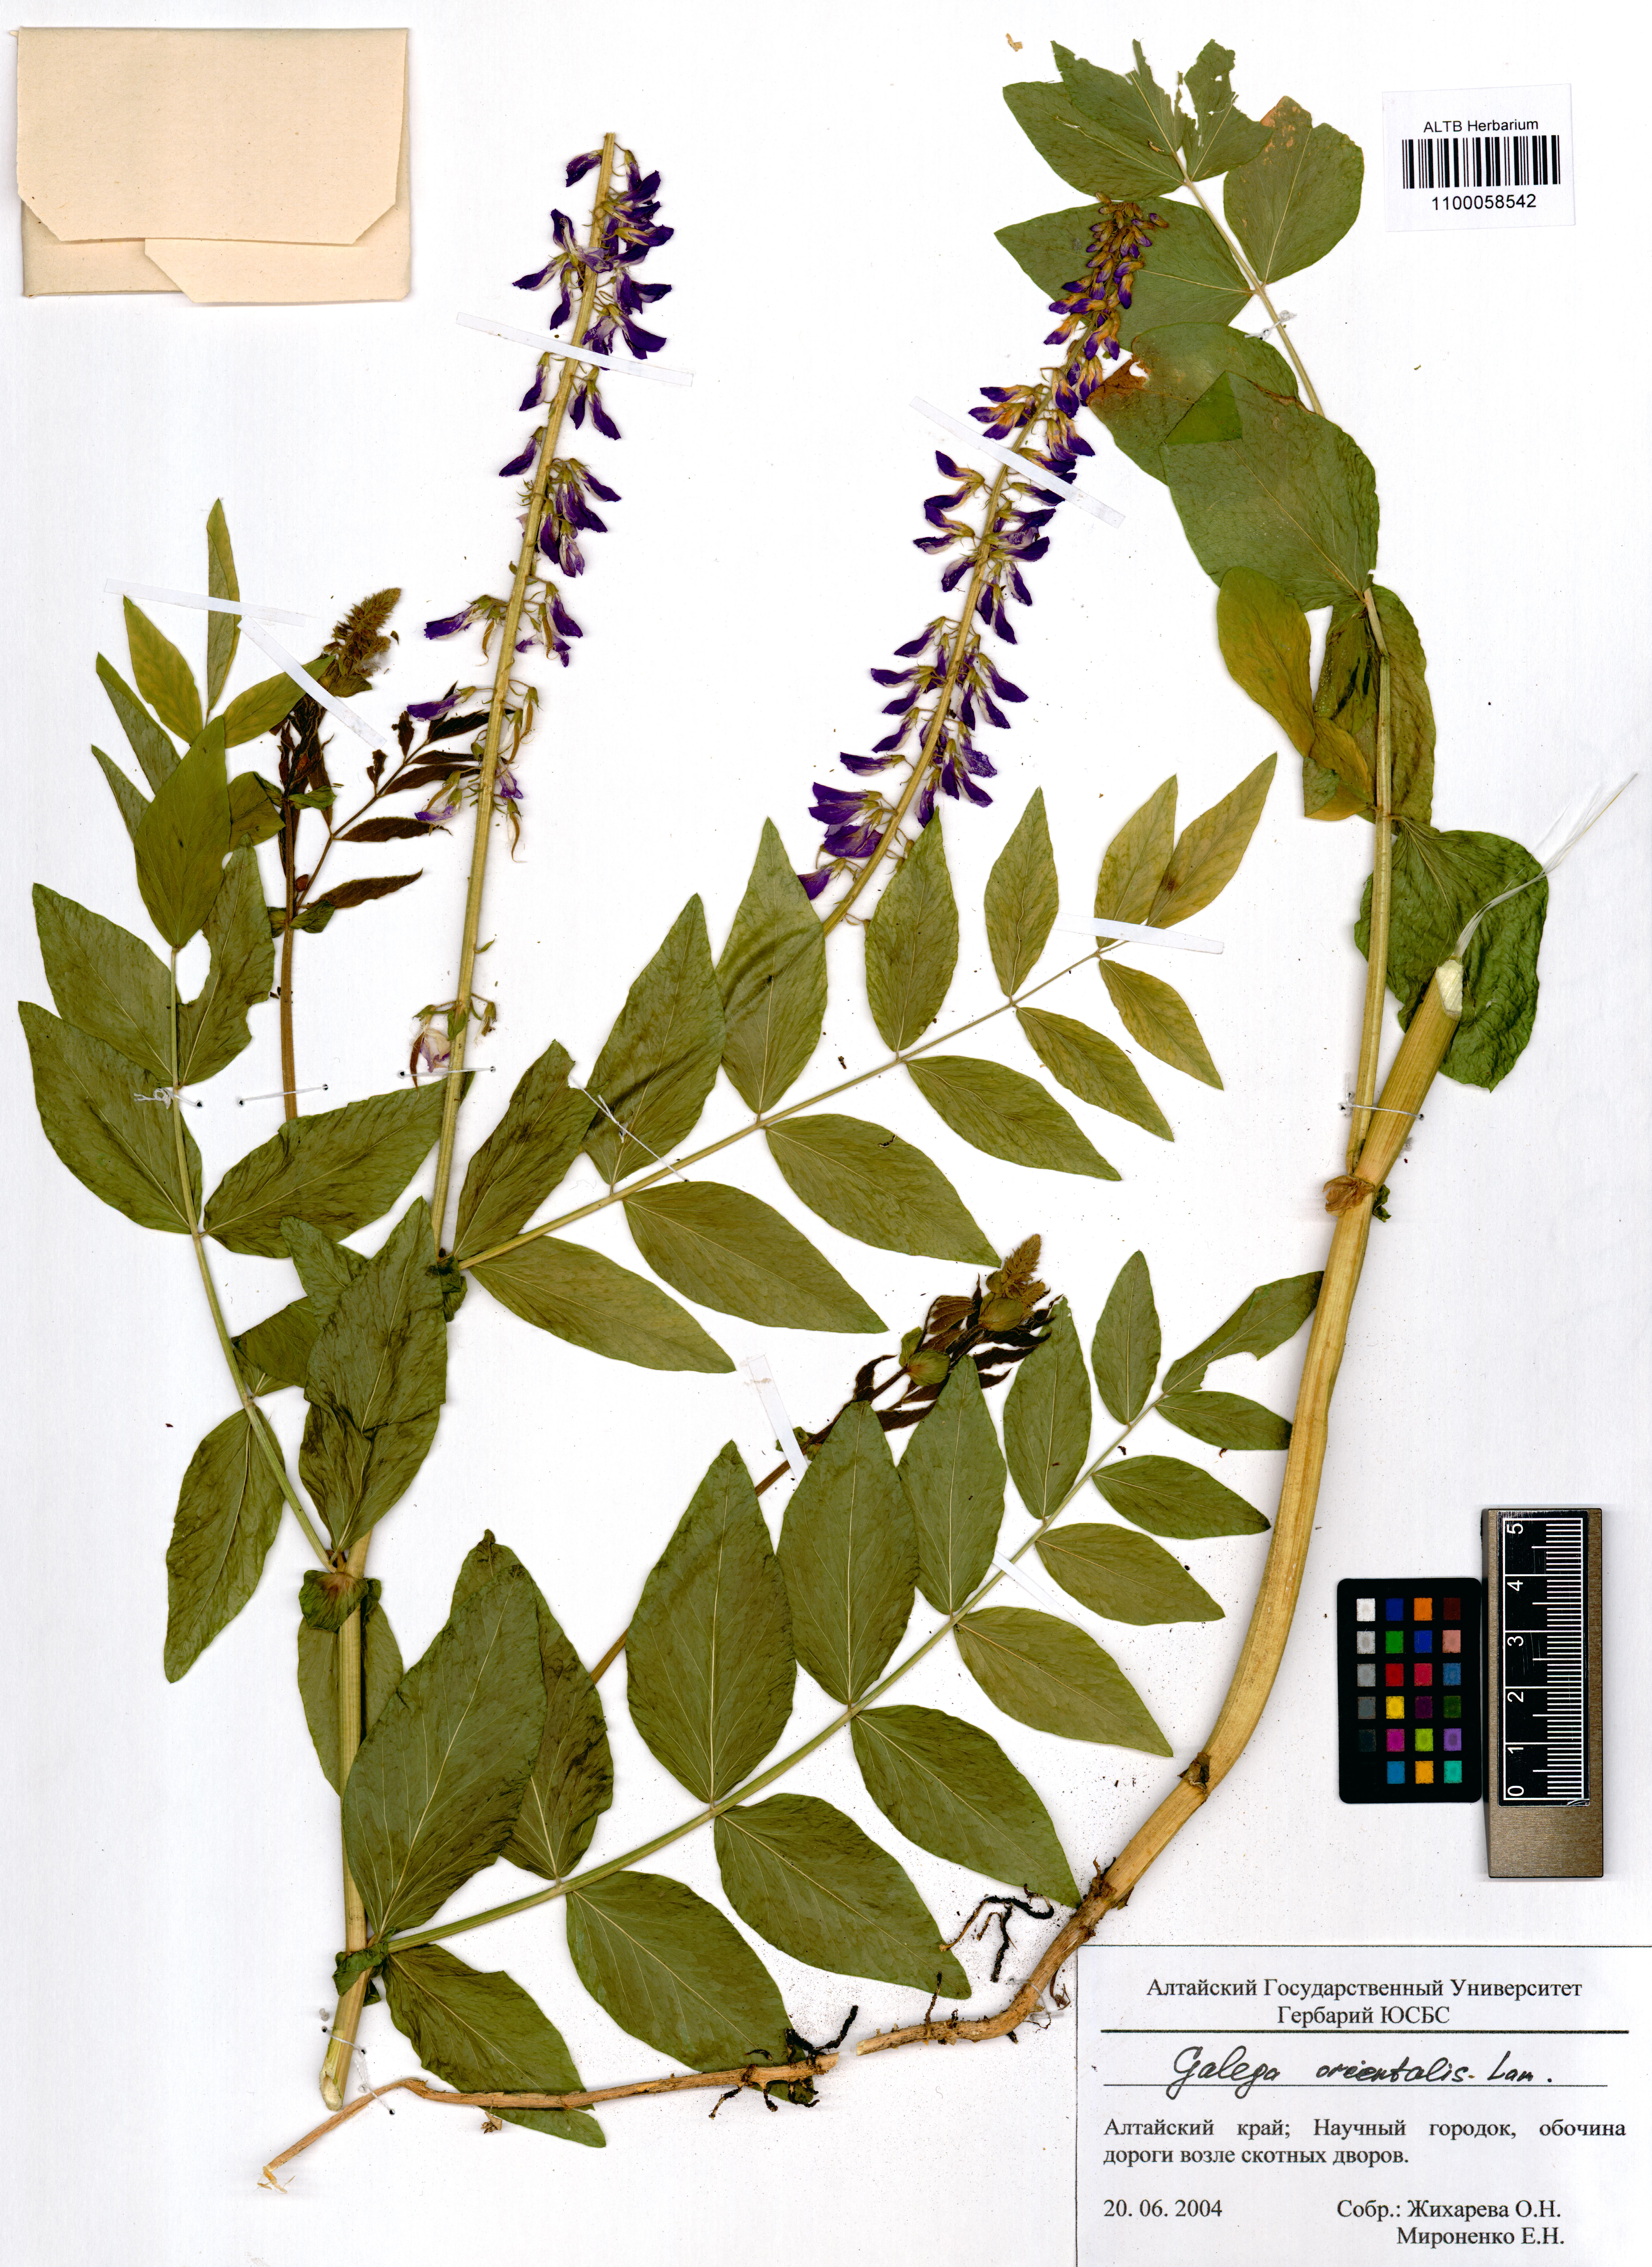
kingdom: Plantae
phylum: Tracheophyta
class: Magnoliopsida
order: Fabales
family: Fabaceae
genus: Galega
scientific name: Galega orientalis
